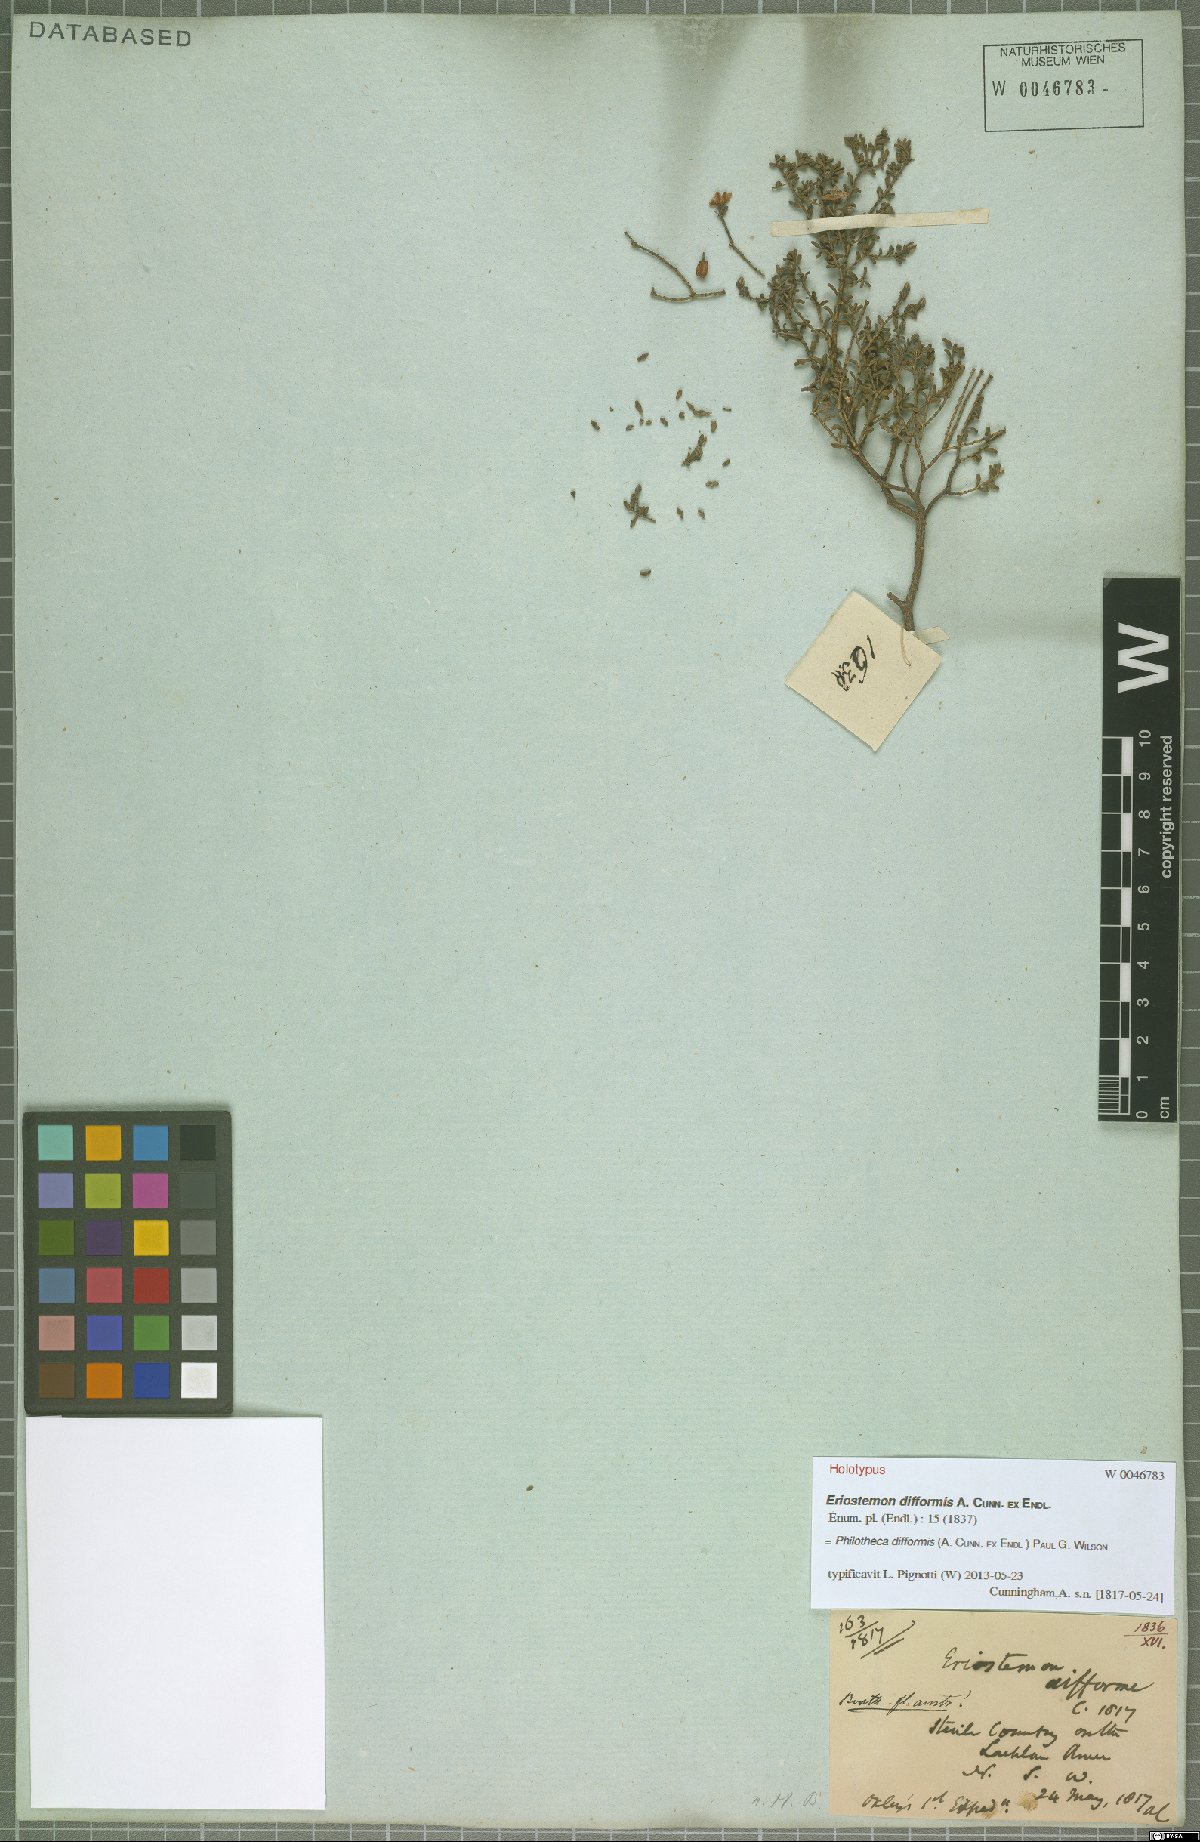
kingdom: Plantae
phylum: Tracheophyta
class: Magnoliopsida
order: Sapindales
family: Rutaceae
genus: Philotheca
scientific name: Philotheca difformis
